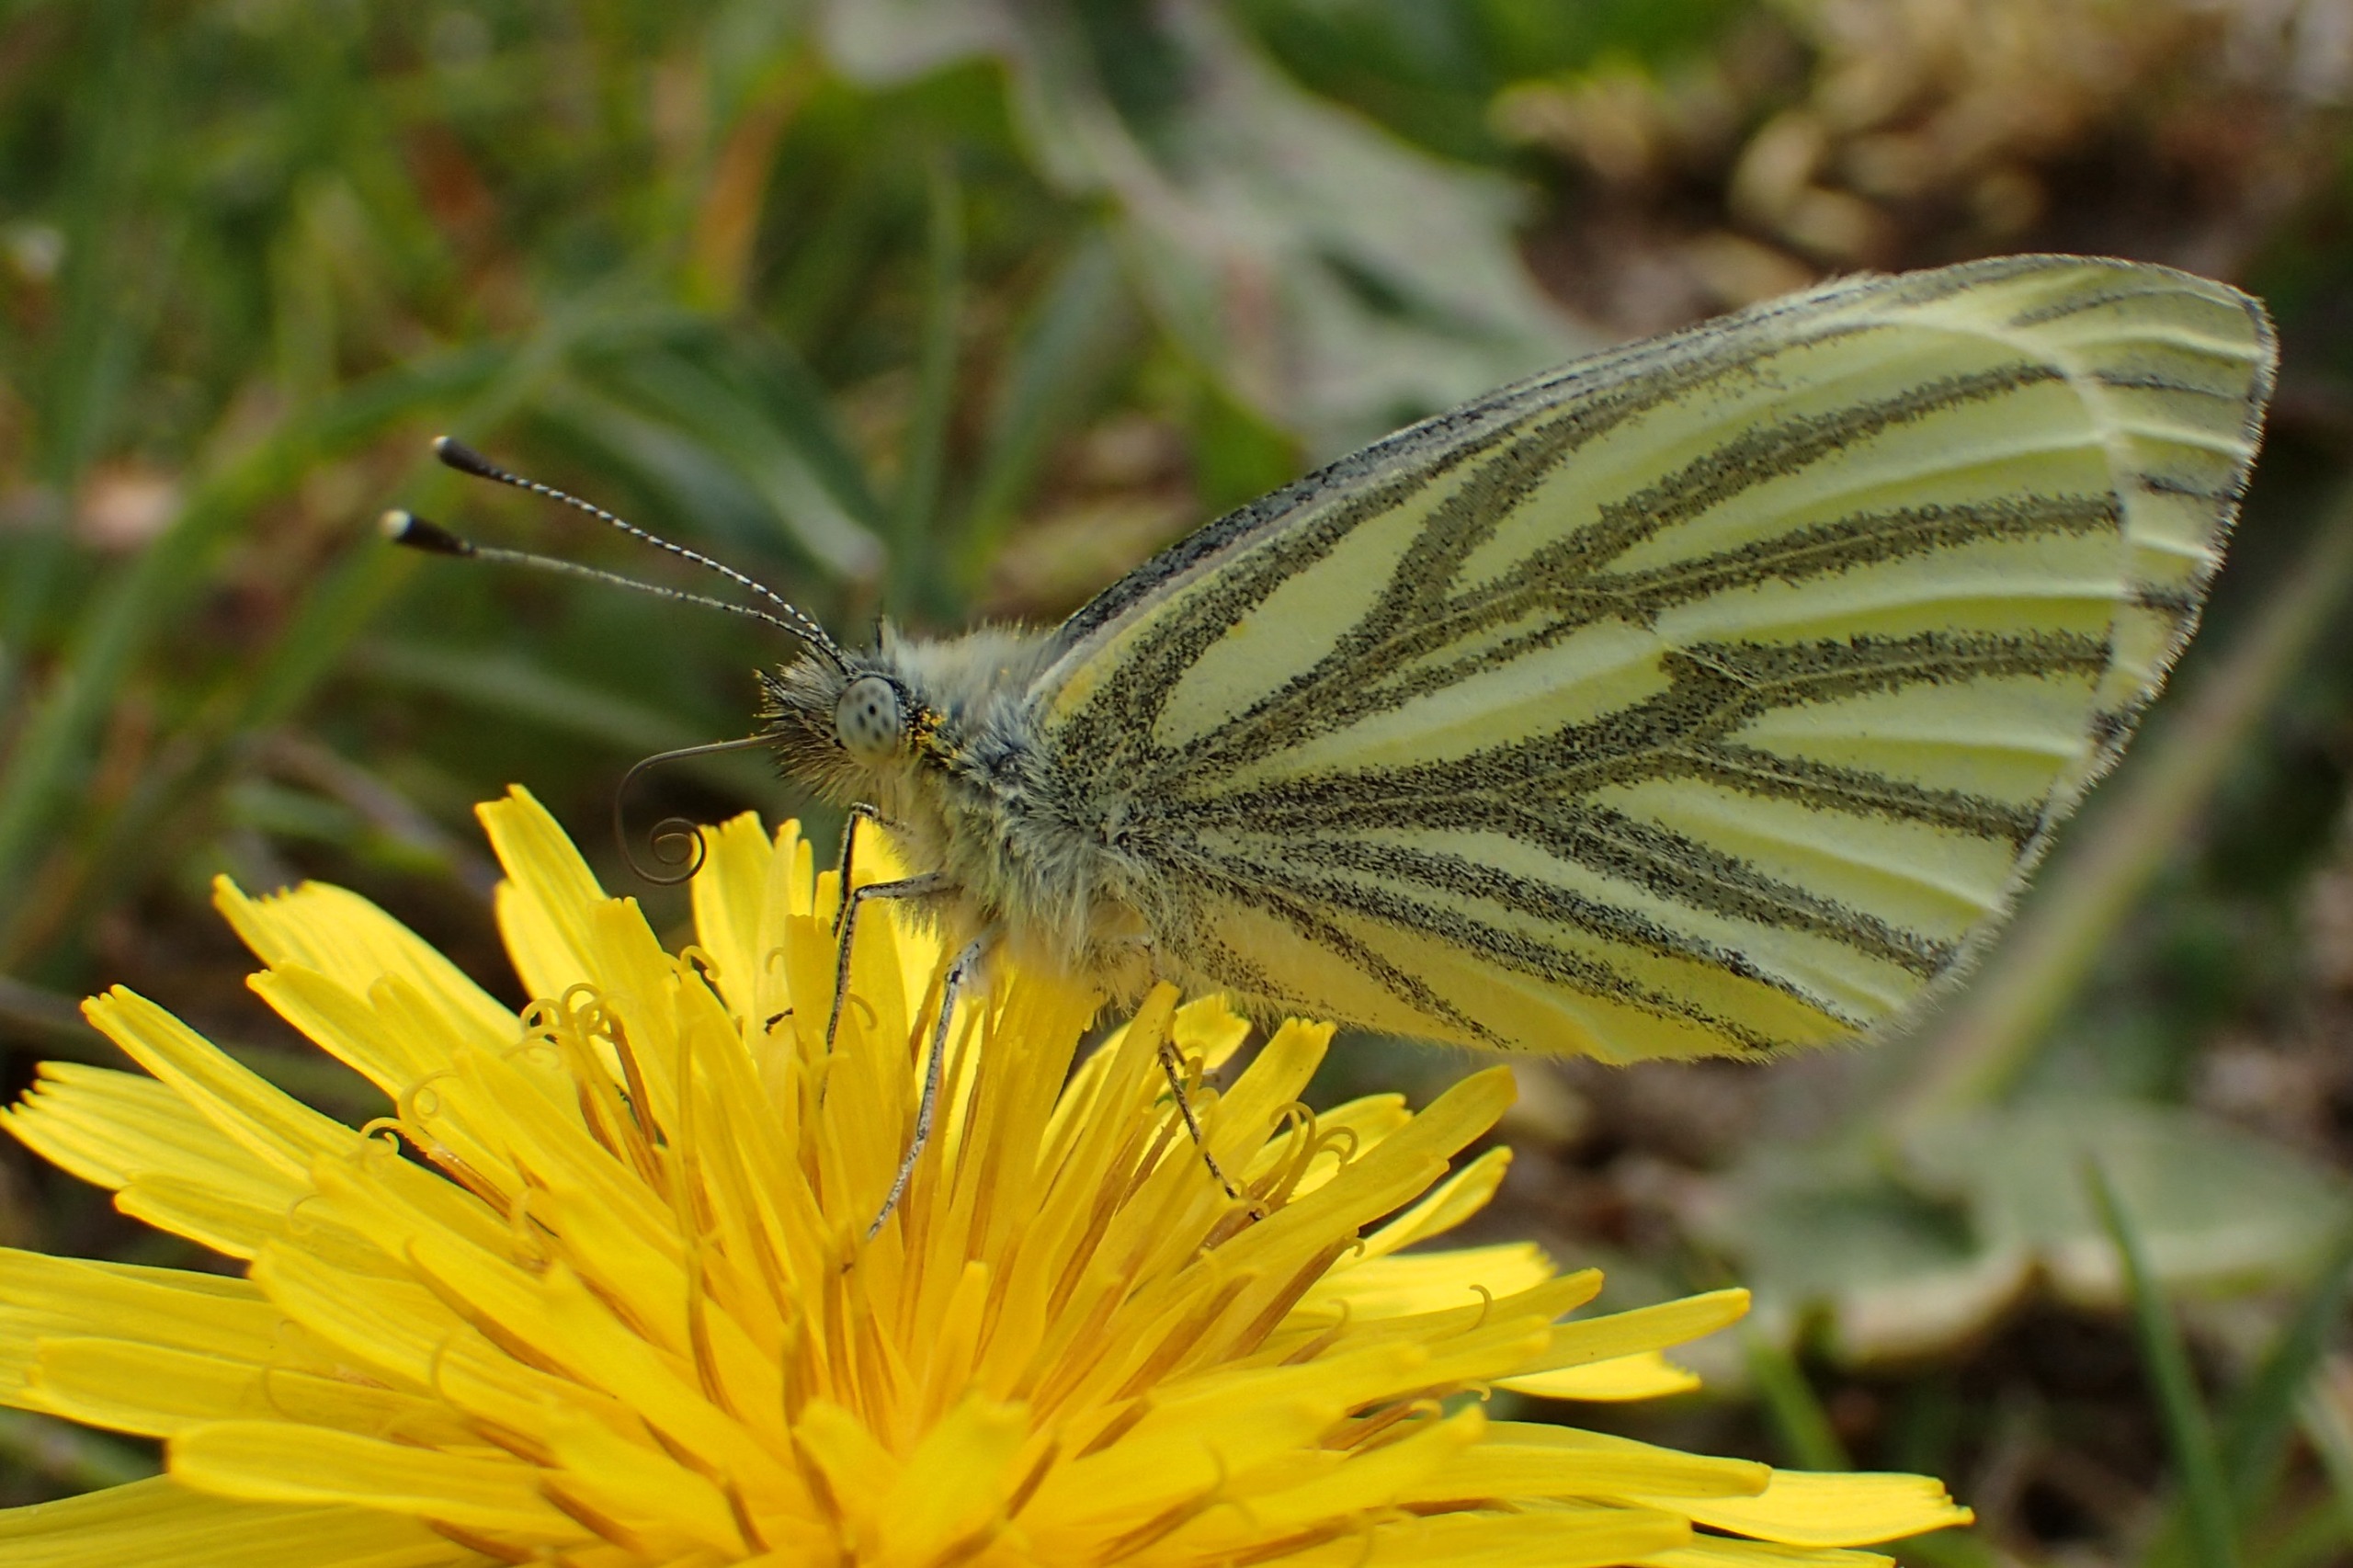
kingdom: Animalia
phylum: Arthropoda
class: Insecta
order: Lepidoptera
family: Pieridae
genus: Pieris
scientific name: Pieris napi
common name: Grønåret kålsommerfugl
